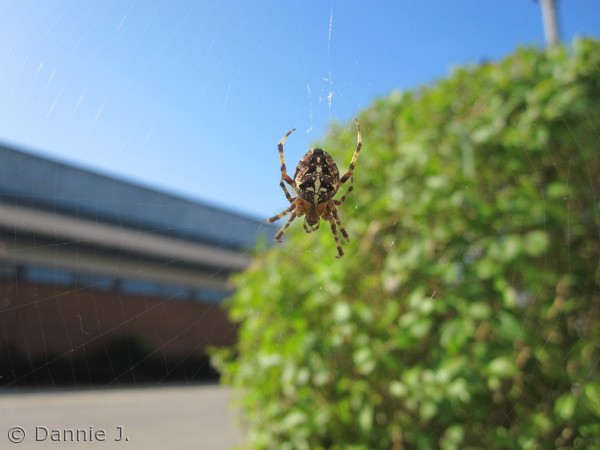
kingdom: Animalia
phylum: Arthropoda
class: Arachnida
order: Araneae
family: Araneidae
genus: Araneus
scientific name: Araneus diadematus
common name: Korsedderkop
